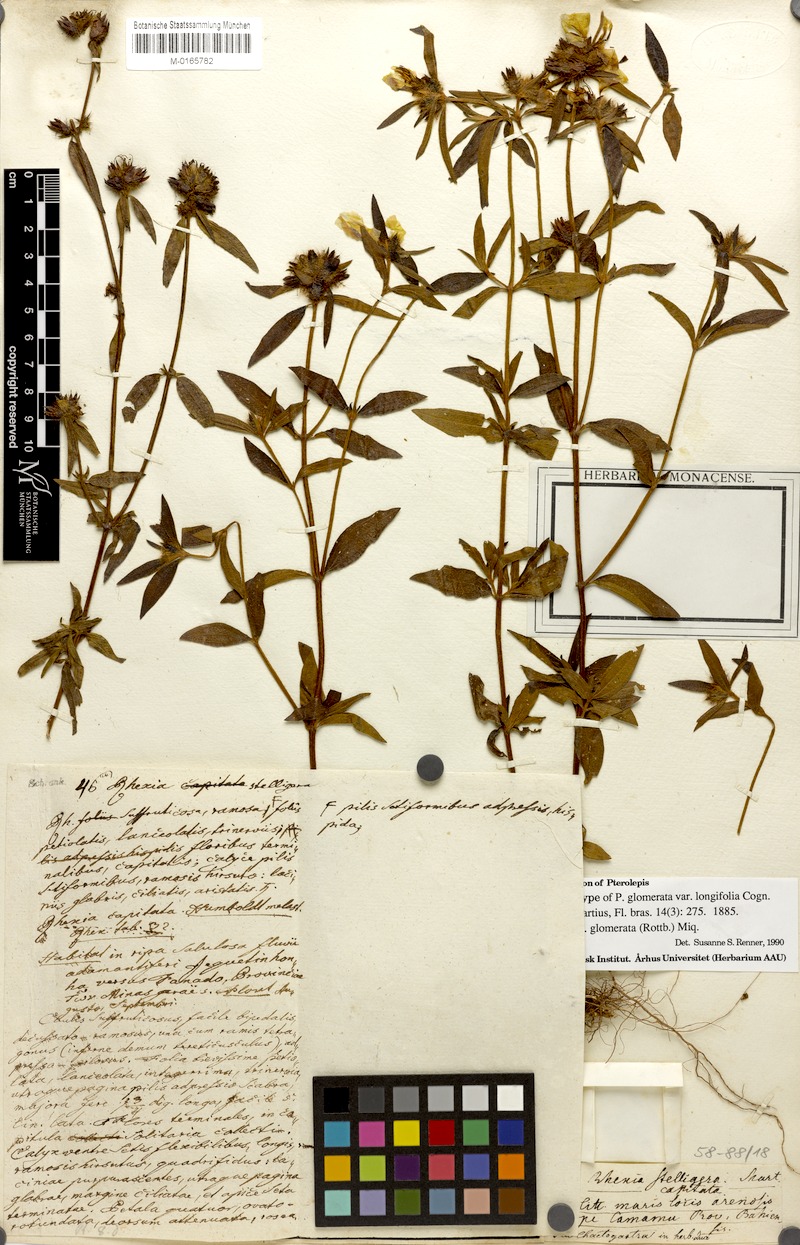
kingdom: Plantae
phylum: Tracheophyta
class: Magnoliopsida
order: Myrtales
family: Melastomataceae
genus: Pterolepis
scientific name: Pterolepis glomerata
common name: False meadowbeauty
